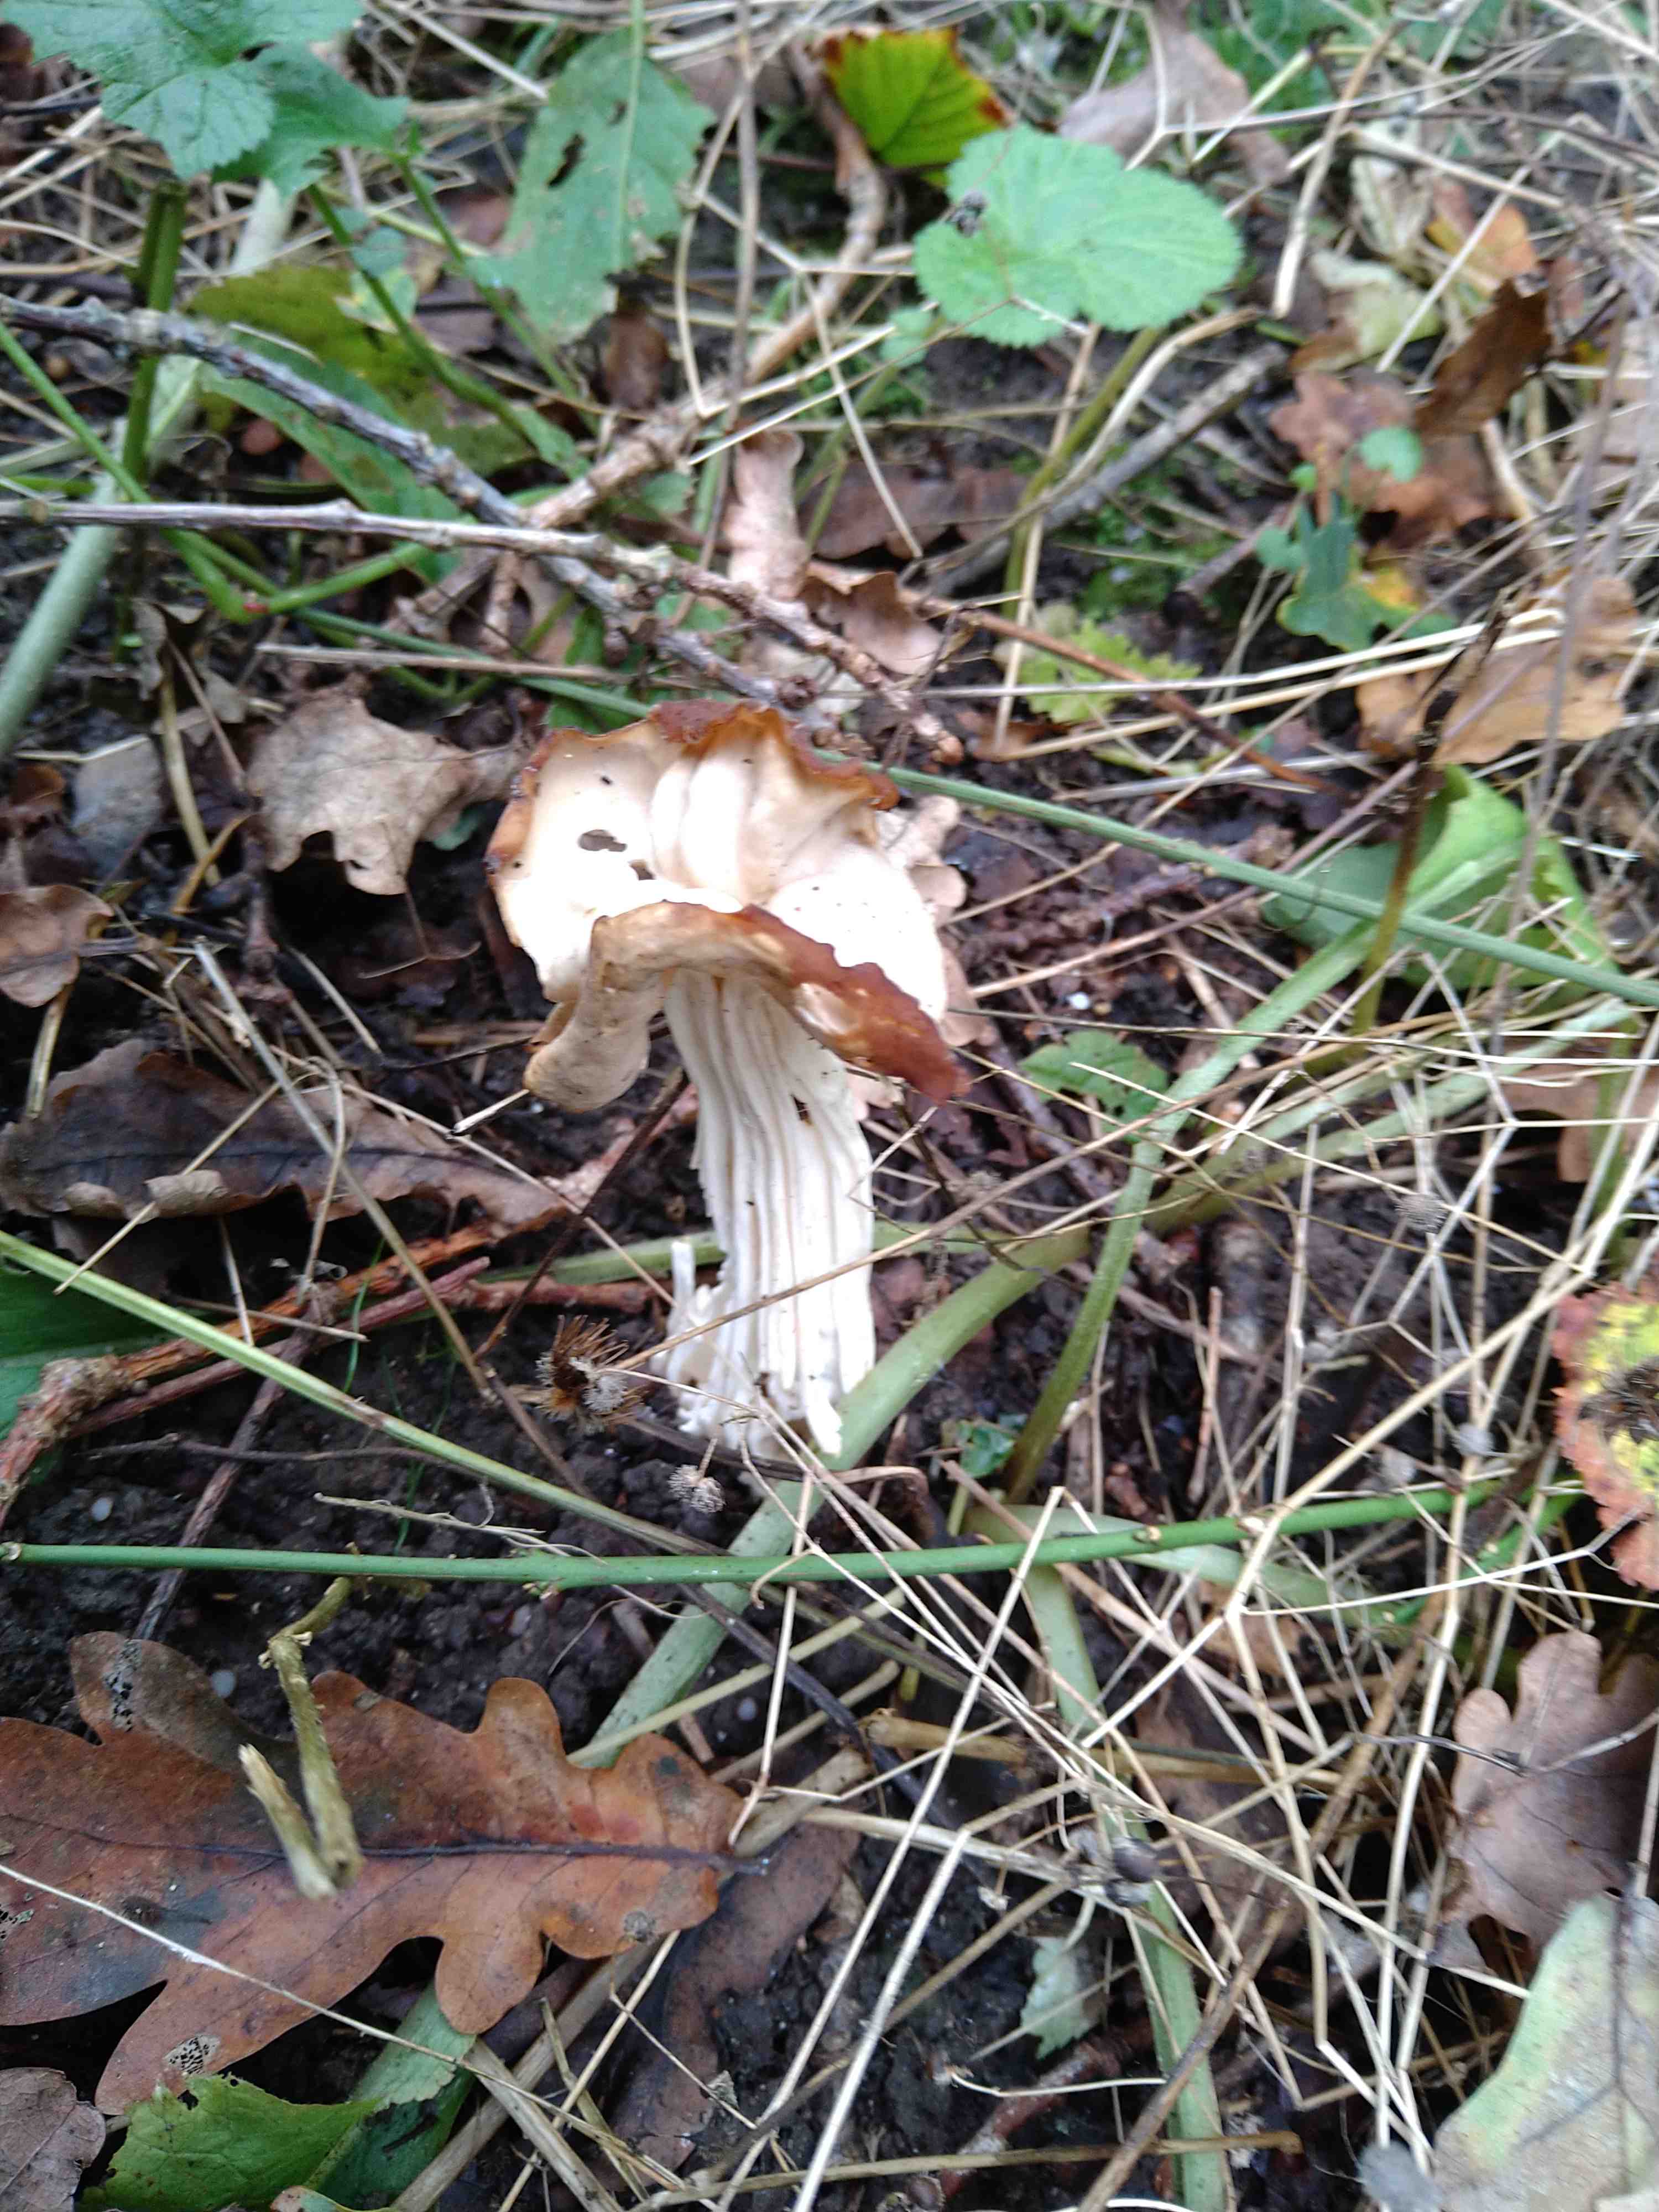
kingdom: Fungi
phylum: Ascomycota
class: Pezizomycetes
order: Pezizales
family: Helvellaceae
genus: Helvella
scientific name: Helvella crispa
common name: kruset foldhat
